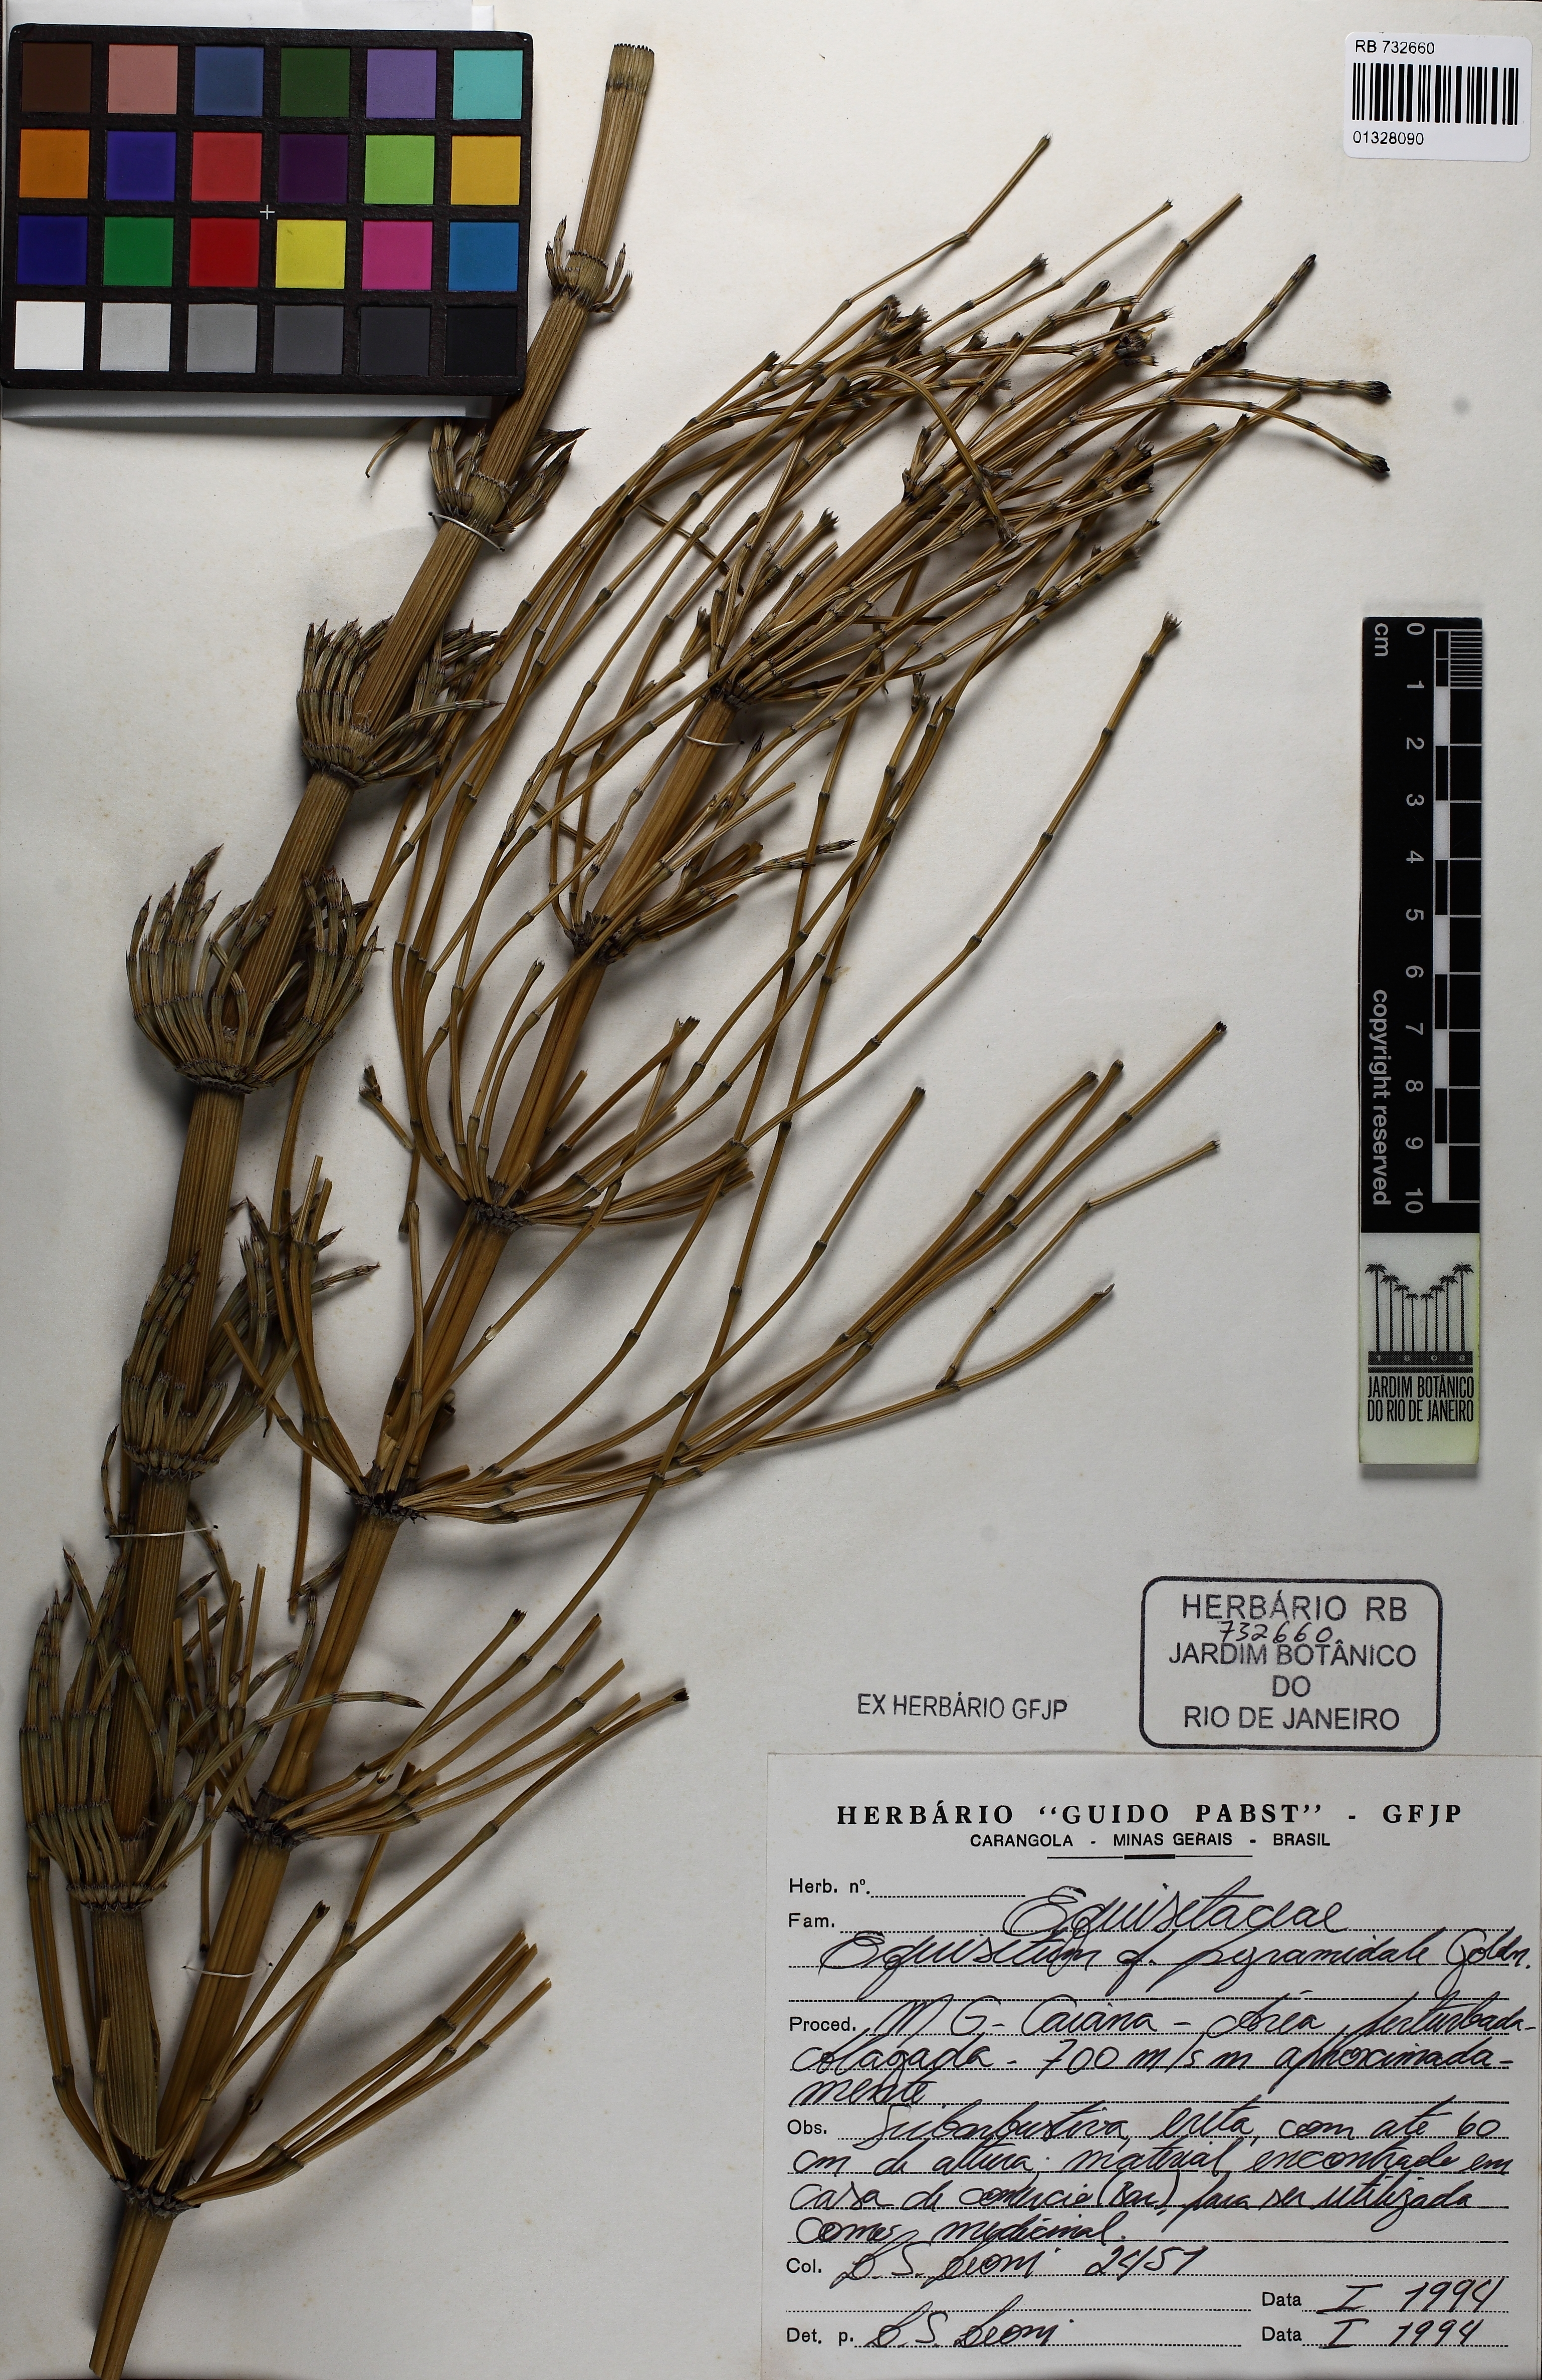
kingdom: Plantae
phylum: Tracheophyta
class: Polypodiopsida
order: Equisetales
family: Equisetaceae
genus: Equisetum
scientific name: Equisetum pyramidale
